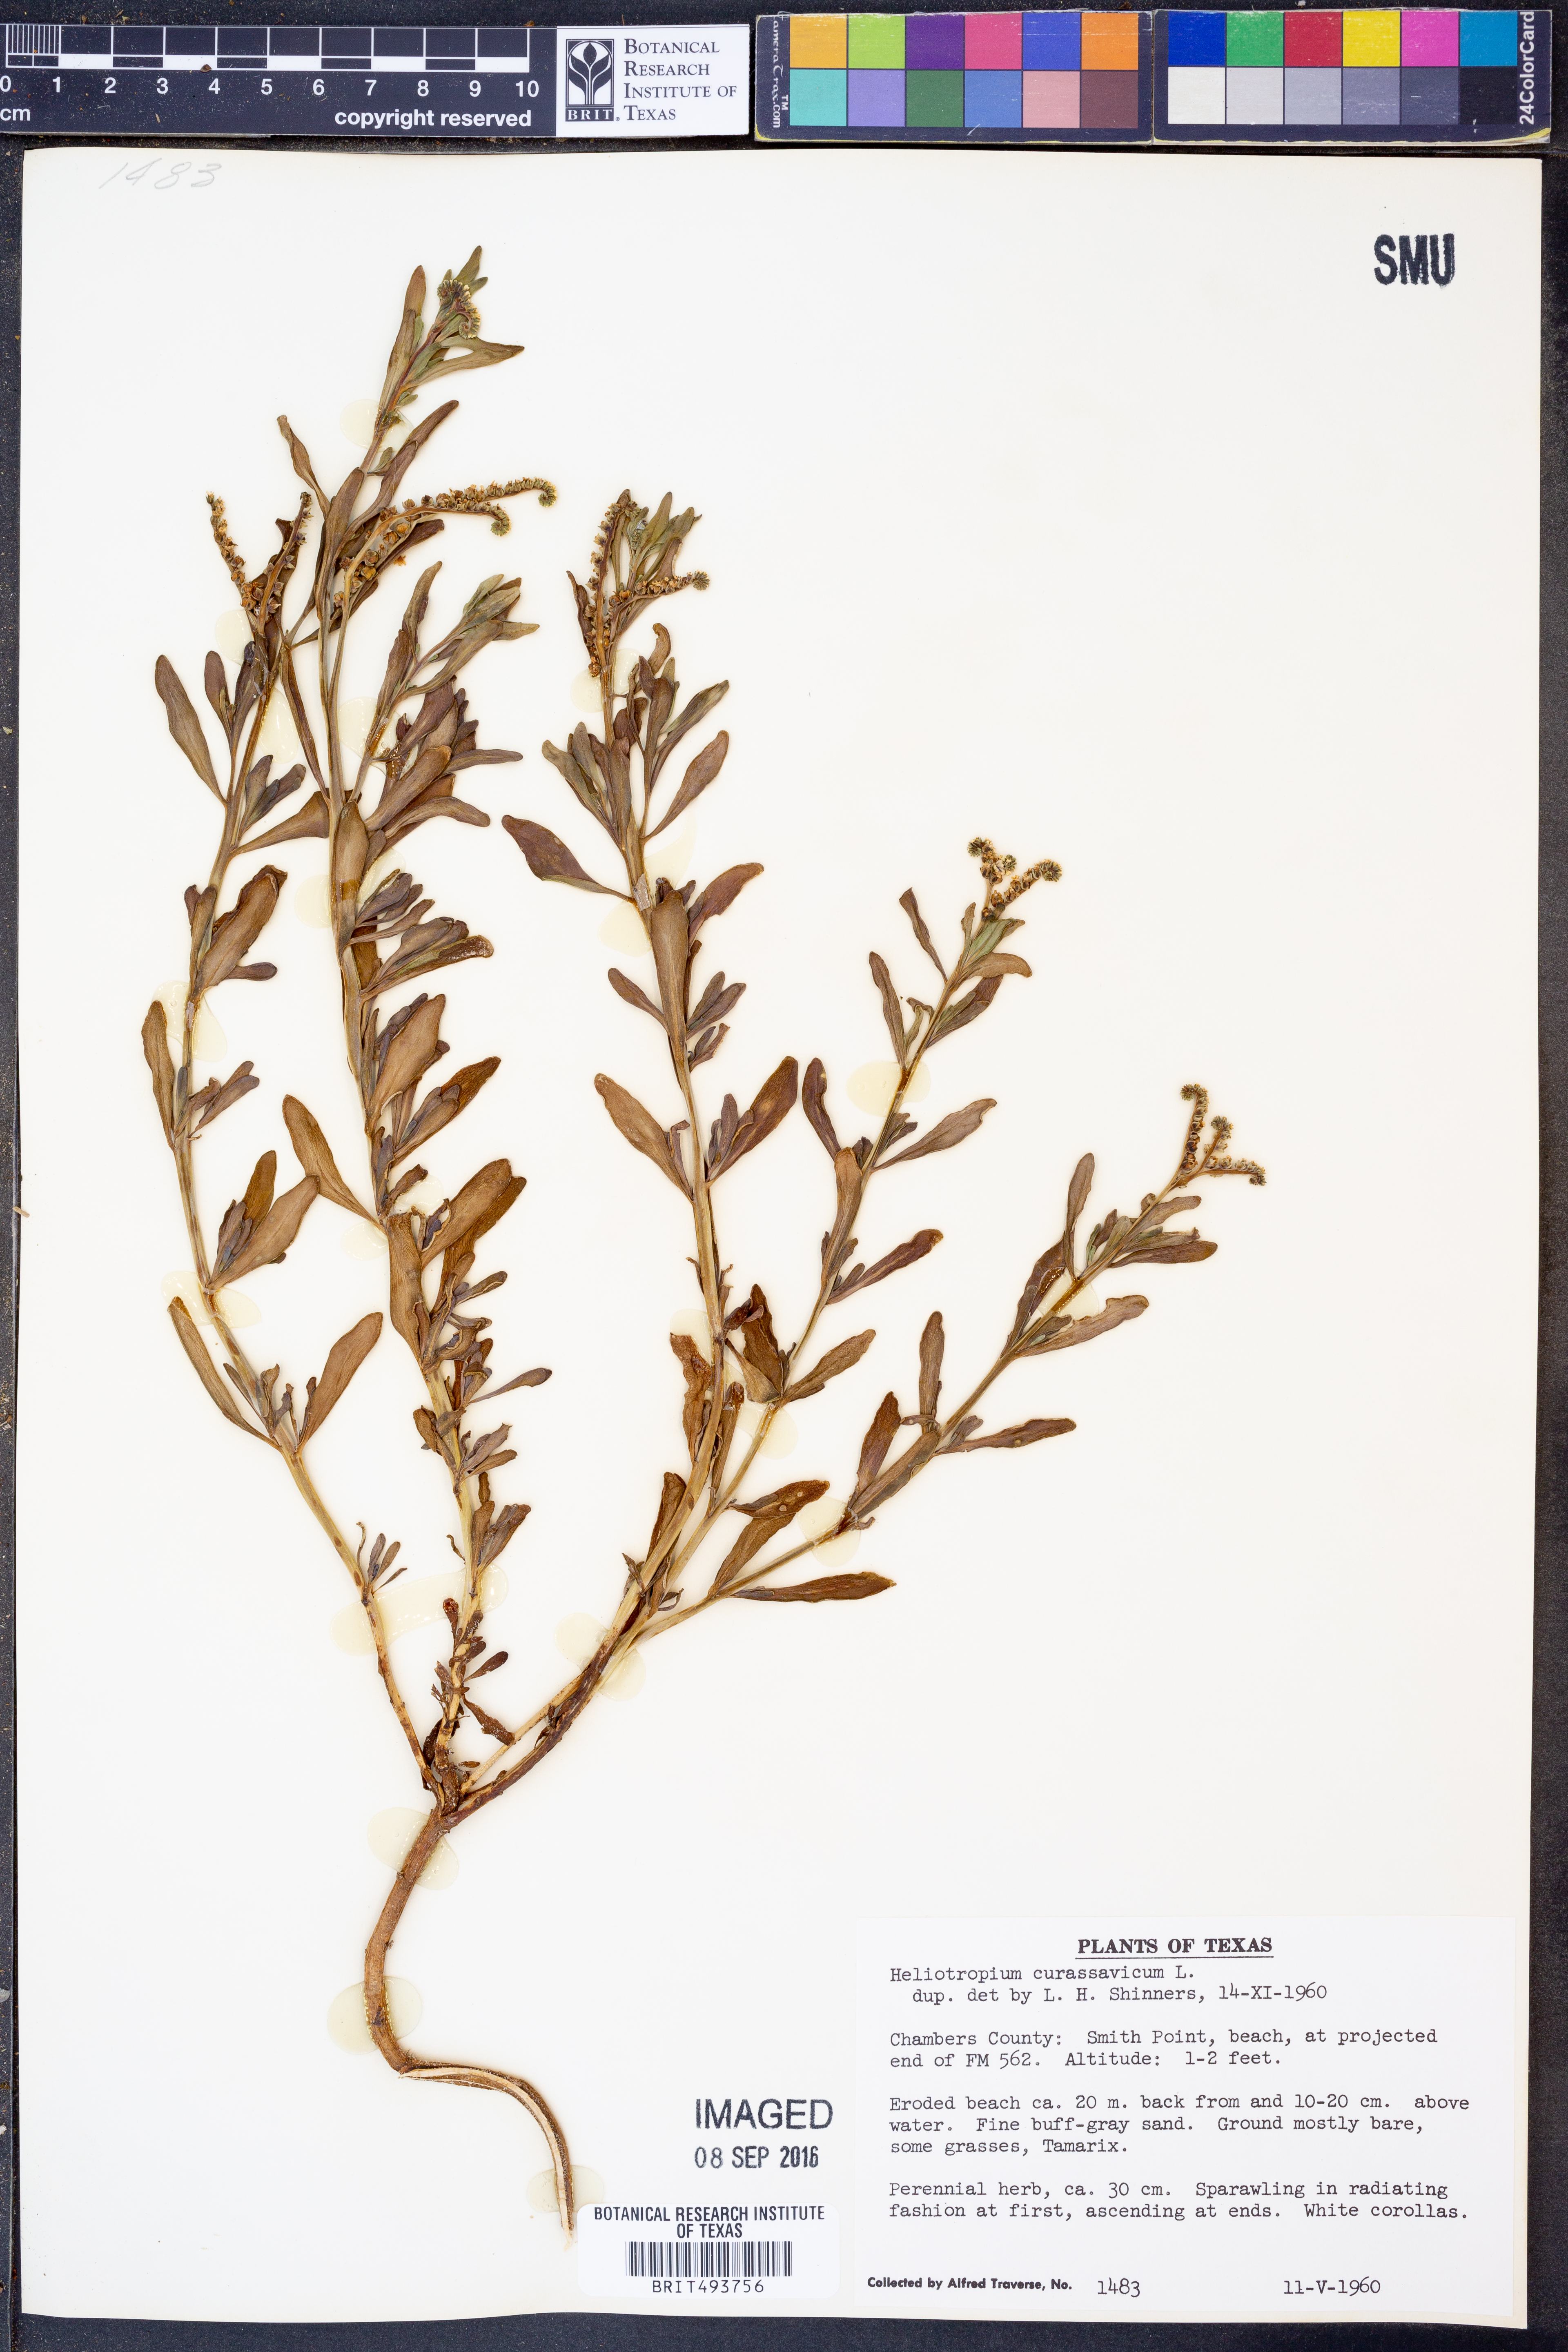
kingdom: Plantae
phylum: Tracheophyta
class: Magnoliopsida
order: Boraginales
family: Heliotropiaceae
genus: Heliotropium
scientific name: Heliotropium curassavicum
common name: Seaside heliotrope
